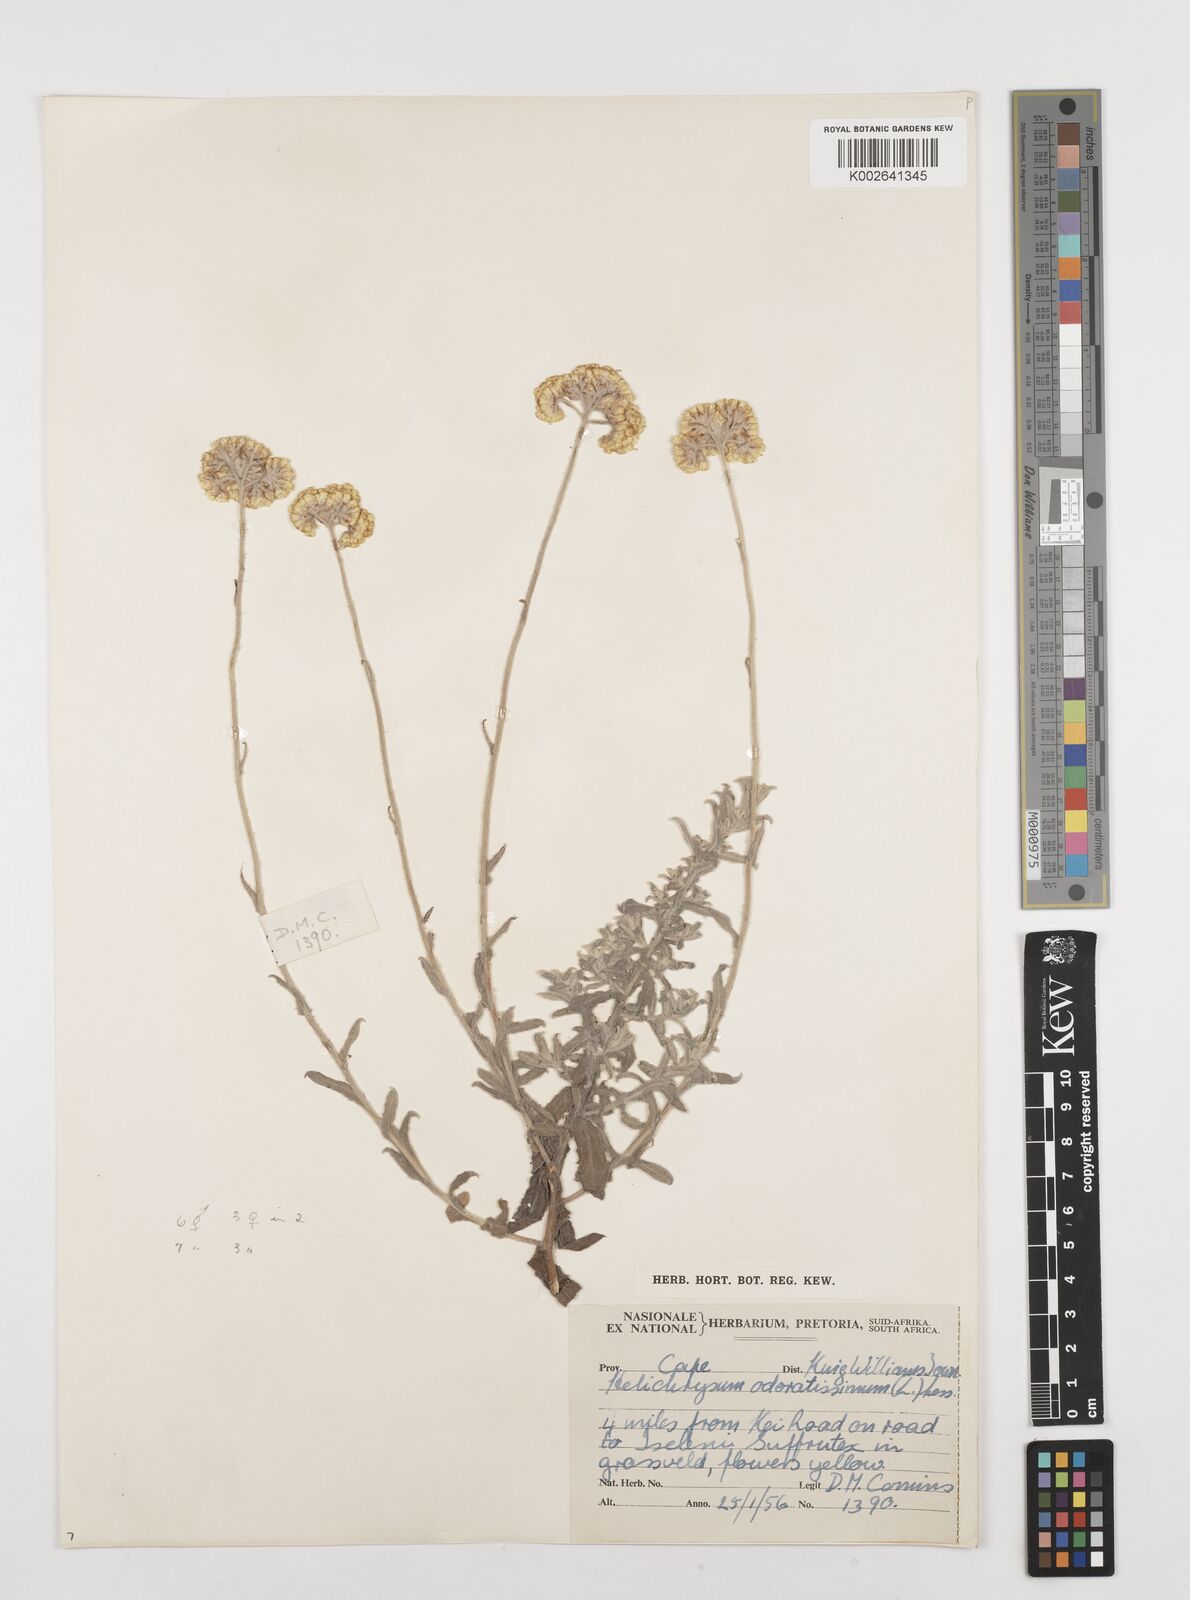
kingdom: Plantae
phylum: Tracheophyta
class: Magnoliopsida
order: Asterales
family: Asteraceae
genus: Helichrysum
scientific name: Helichrysum odoratissimum
